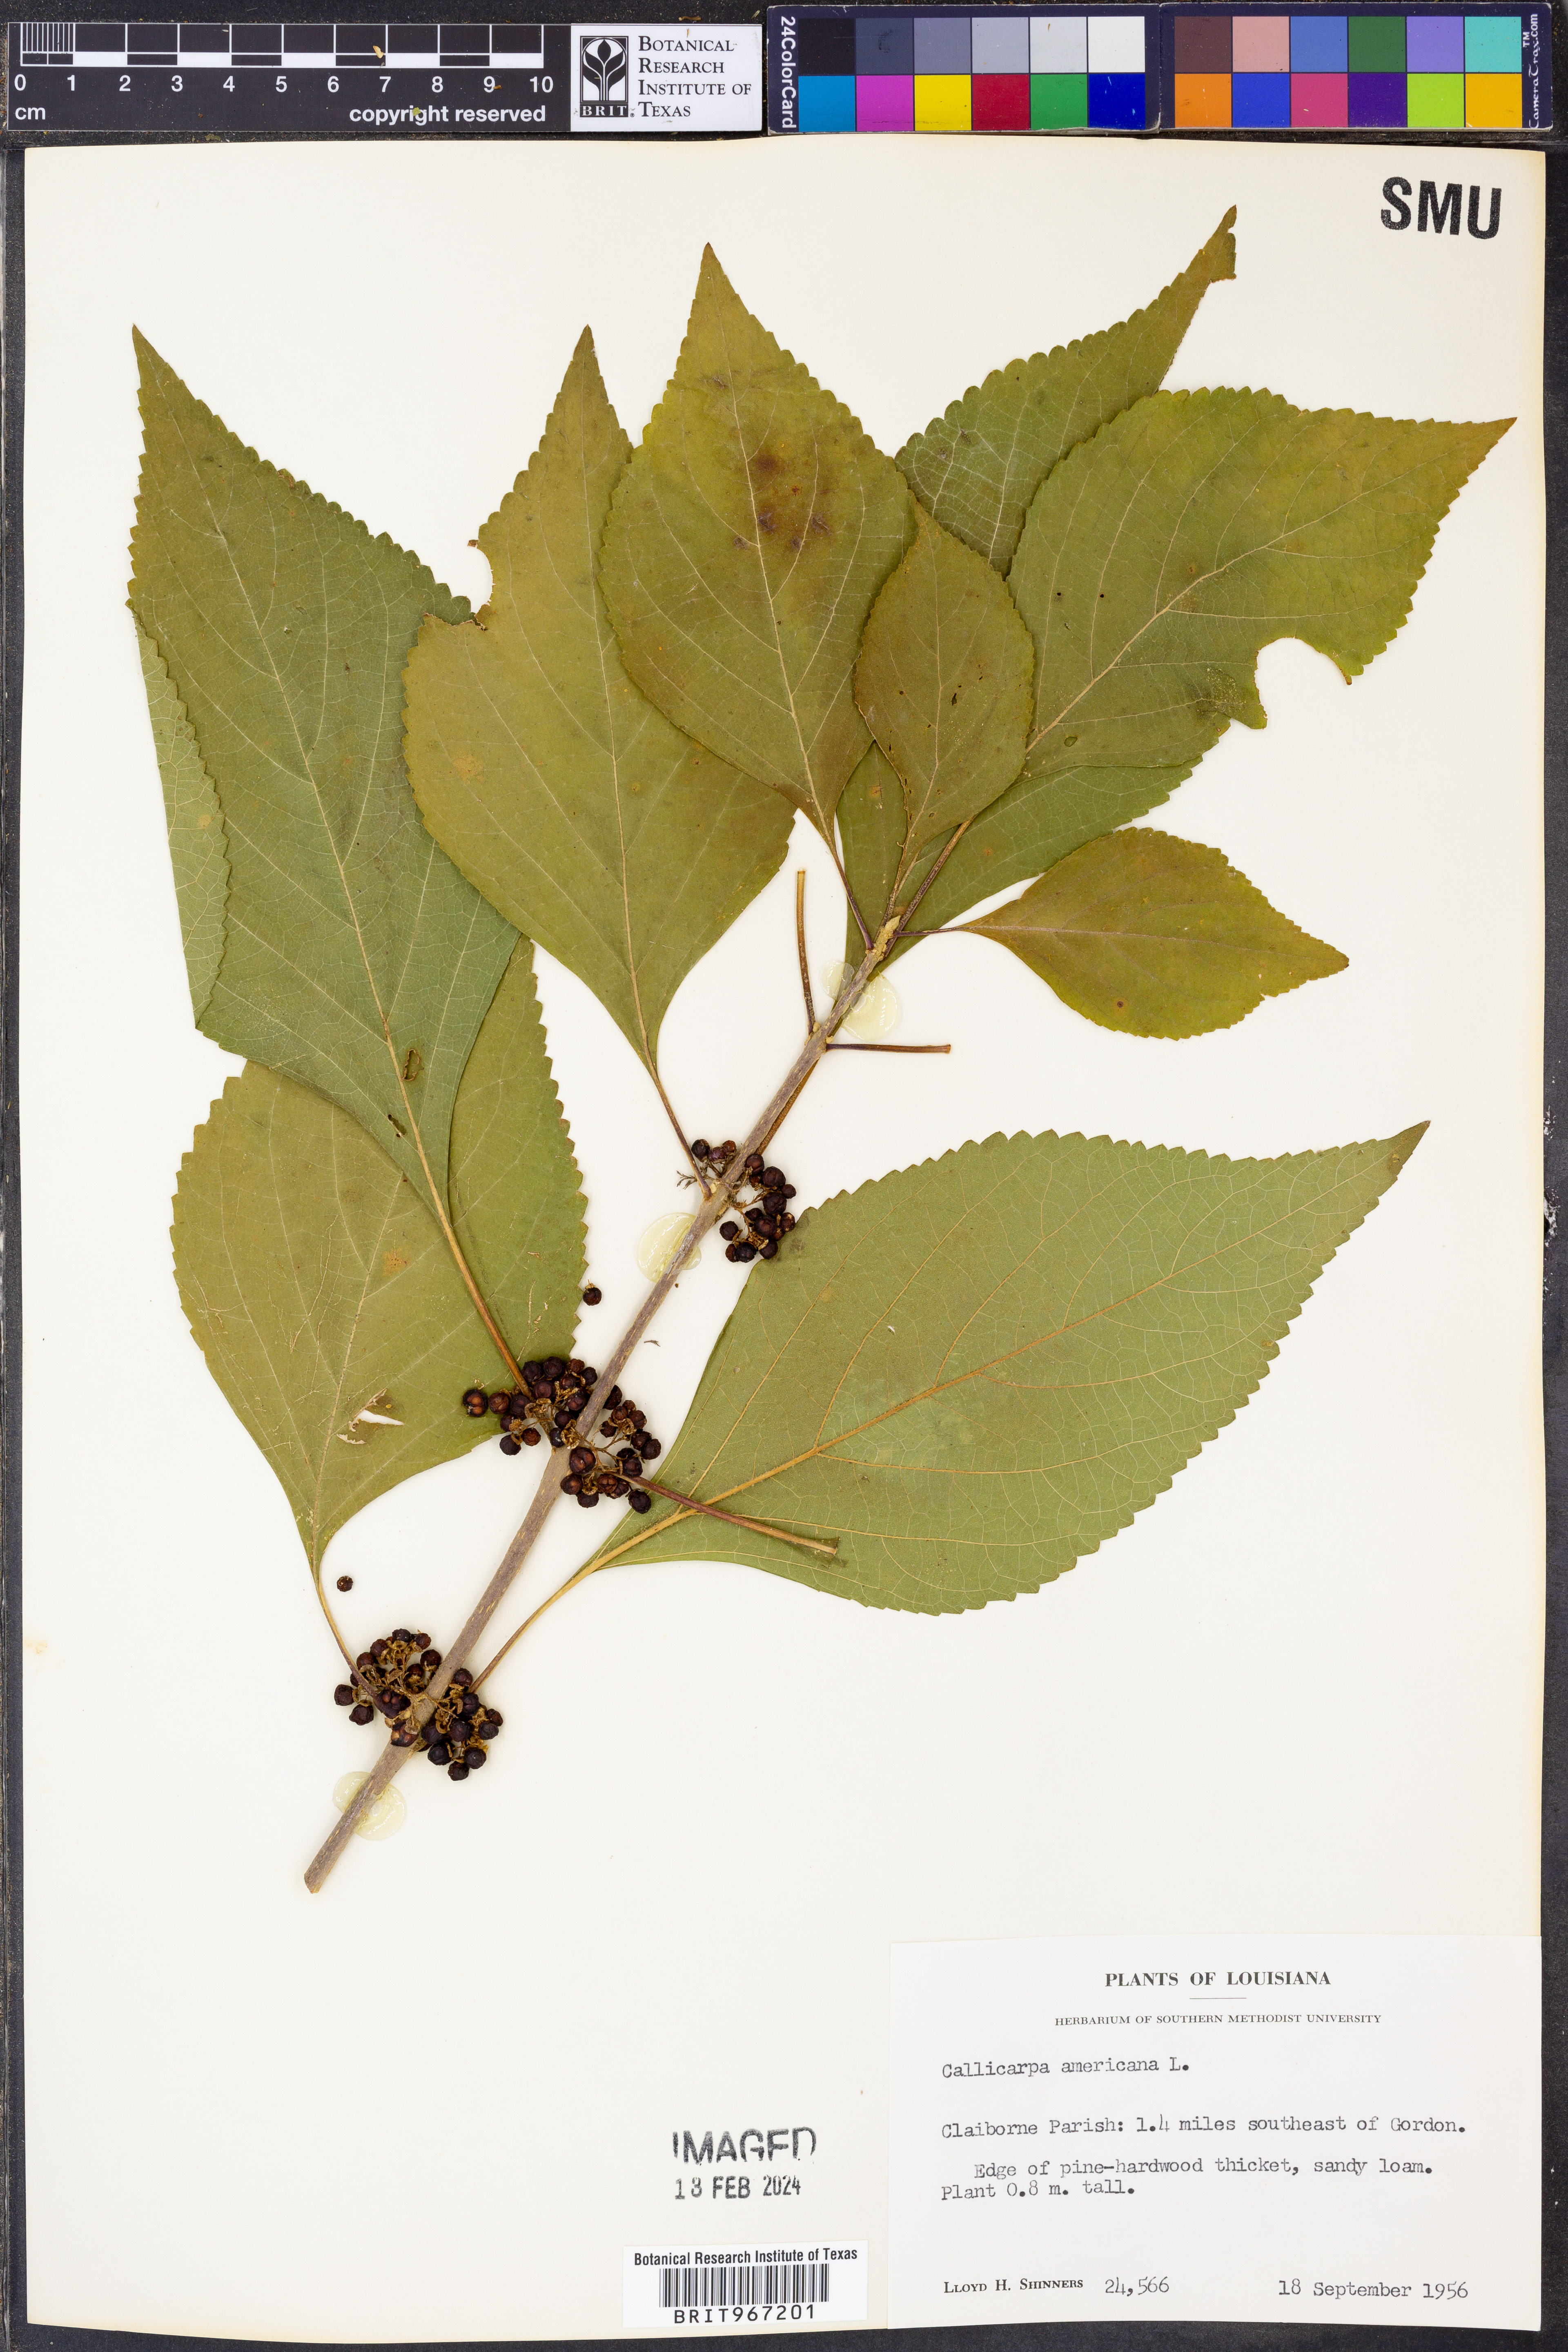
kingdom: Plantae
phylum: Tracheophyta
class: Magnoliopsida
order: Lamiales
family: Lamiaceae
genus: Callicarpa
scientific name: Callicarpa americana
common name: American beautyberry
